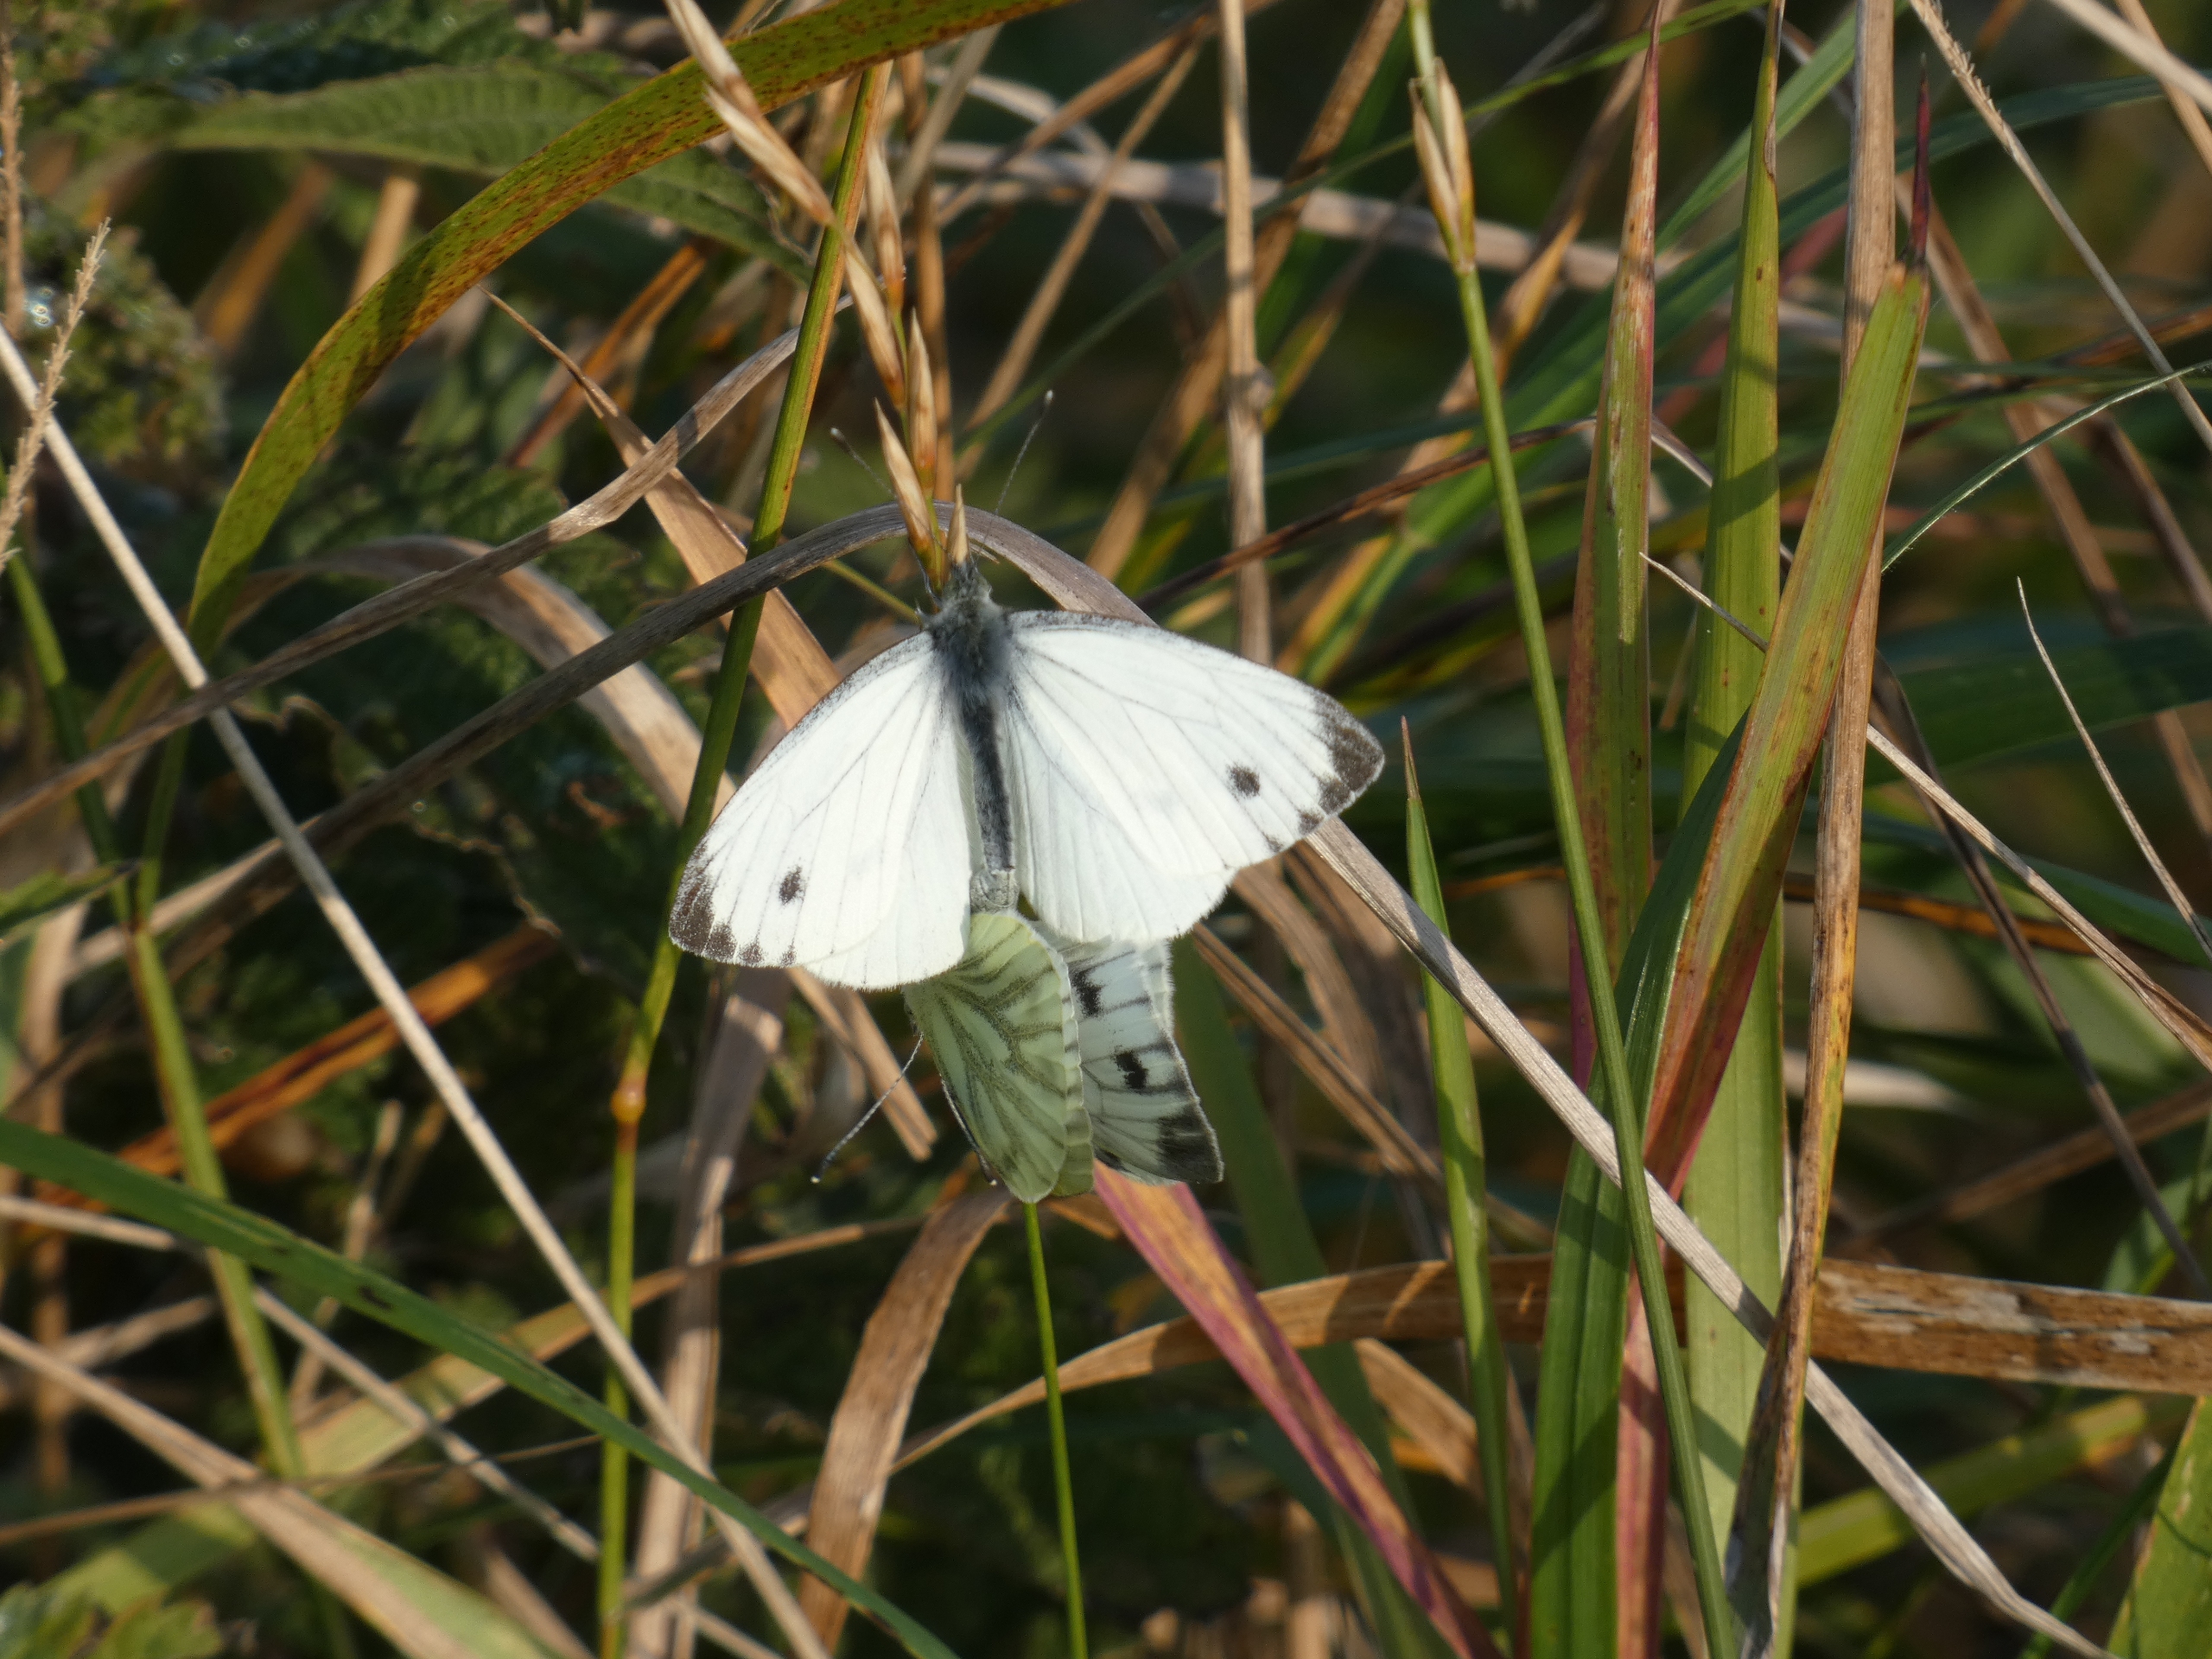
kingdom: Animalia
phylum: Arthropoda
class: Insecta
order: Lepidoptera
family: Pieridae
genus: Pieris
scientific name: Pieris napi
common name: Grønåret kålsommerfugl
